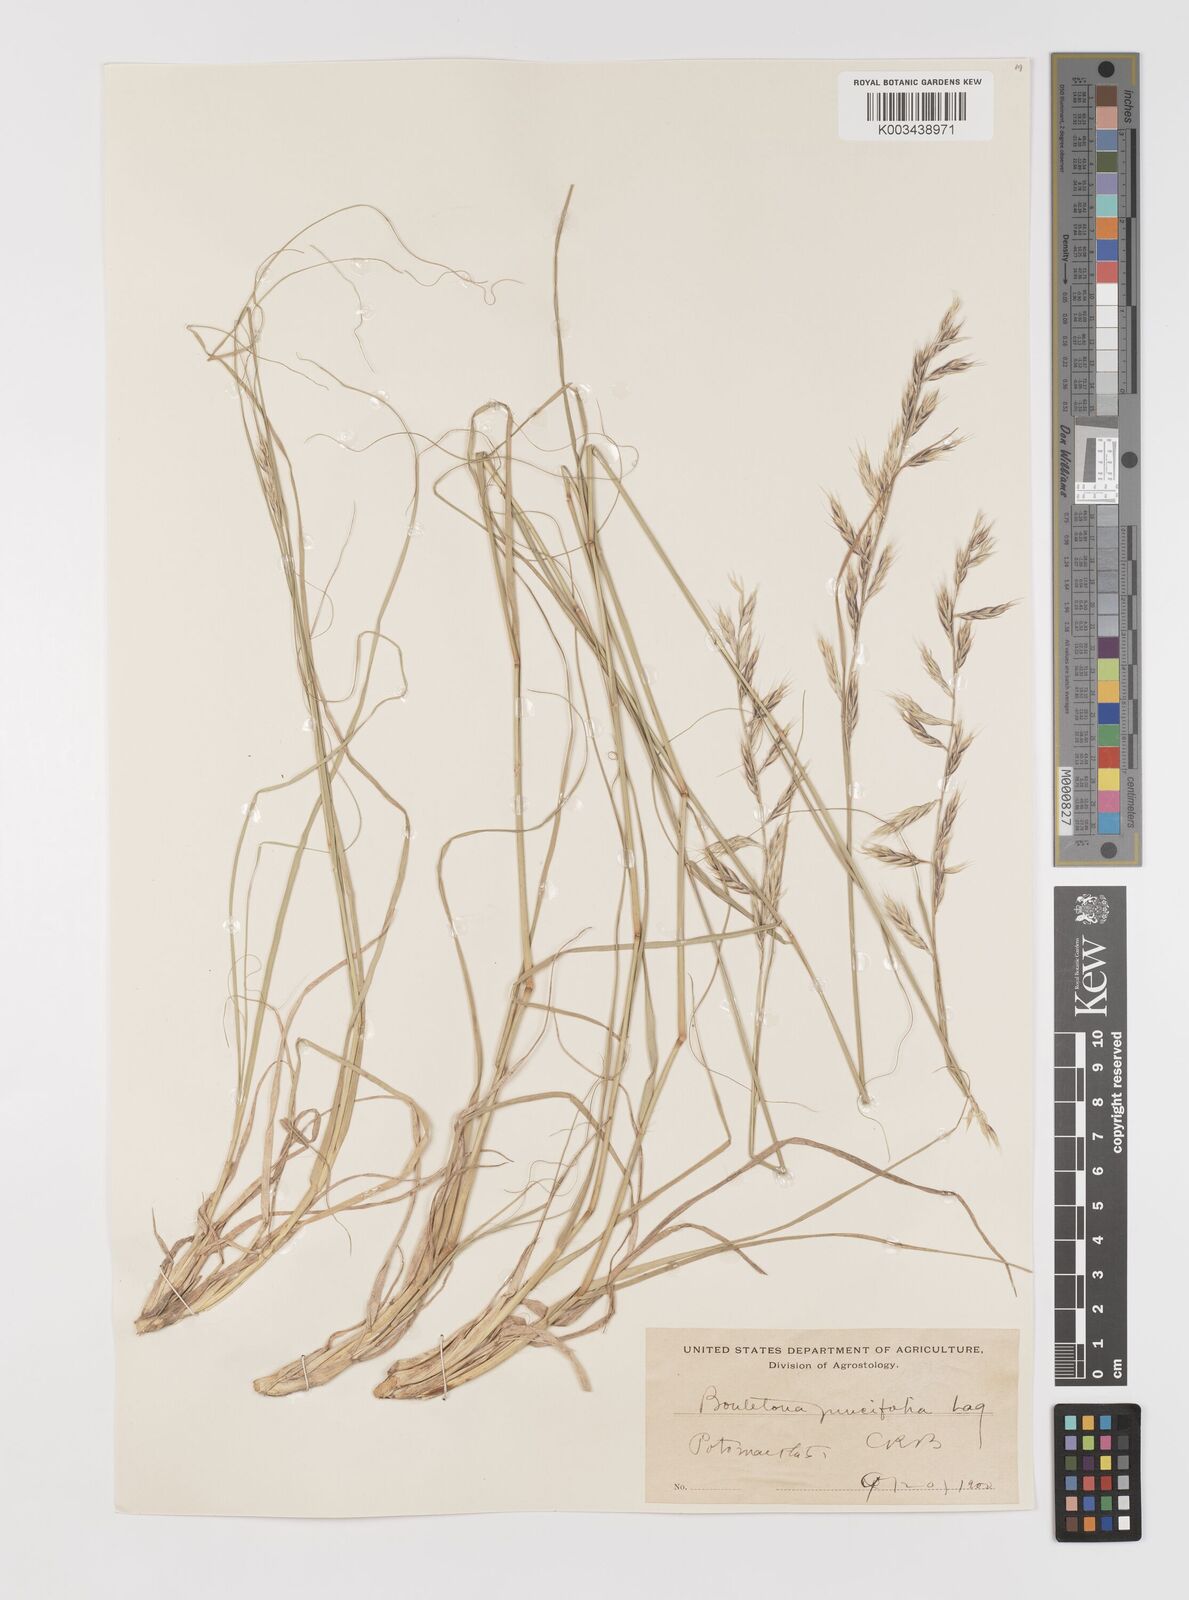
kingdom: Plantae
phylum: Tracheophyta
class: Liliopsida
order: Poales
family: Poaceae
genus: Bouteloua
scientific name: Bouteloua radicosa
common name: Purple grama
